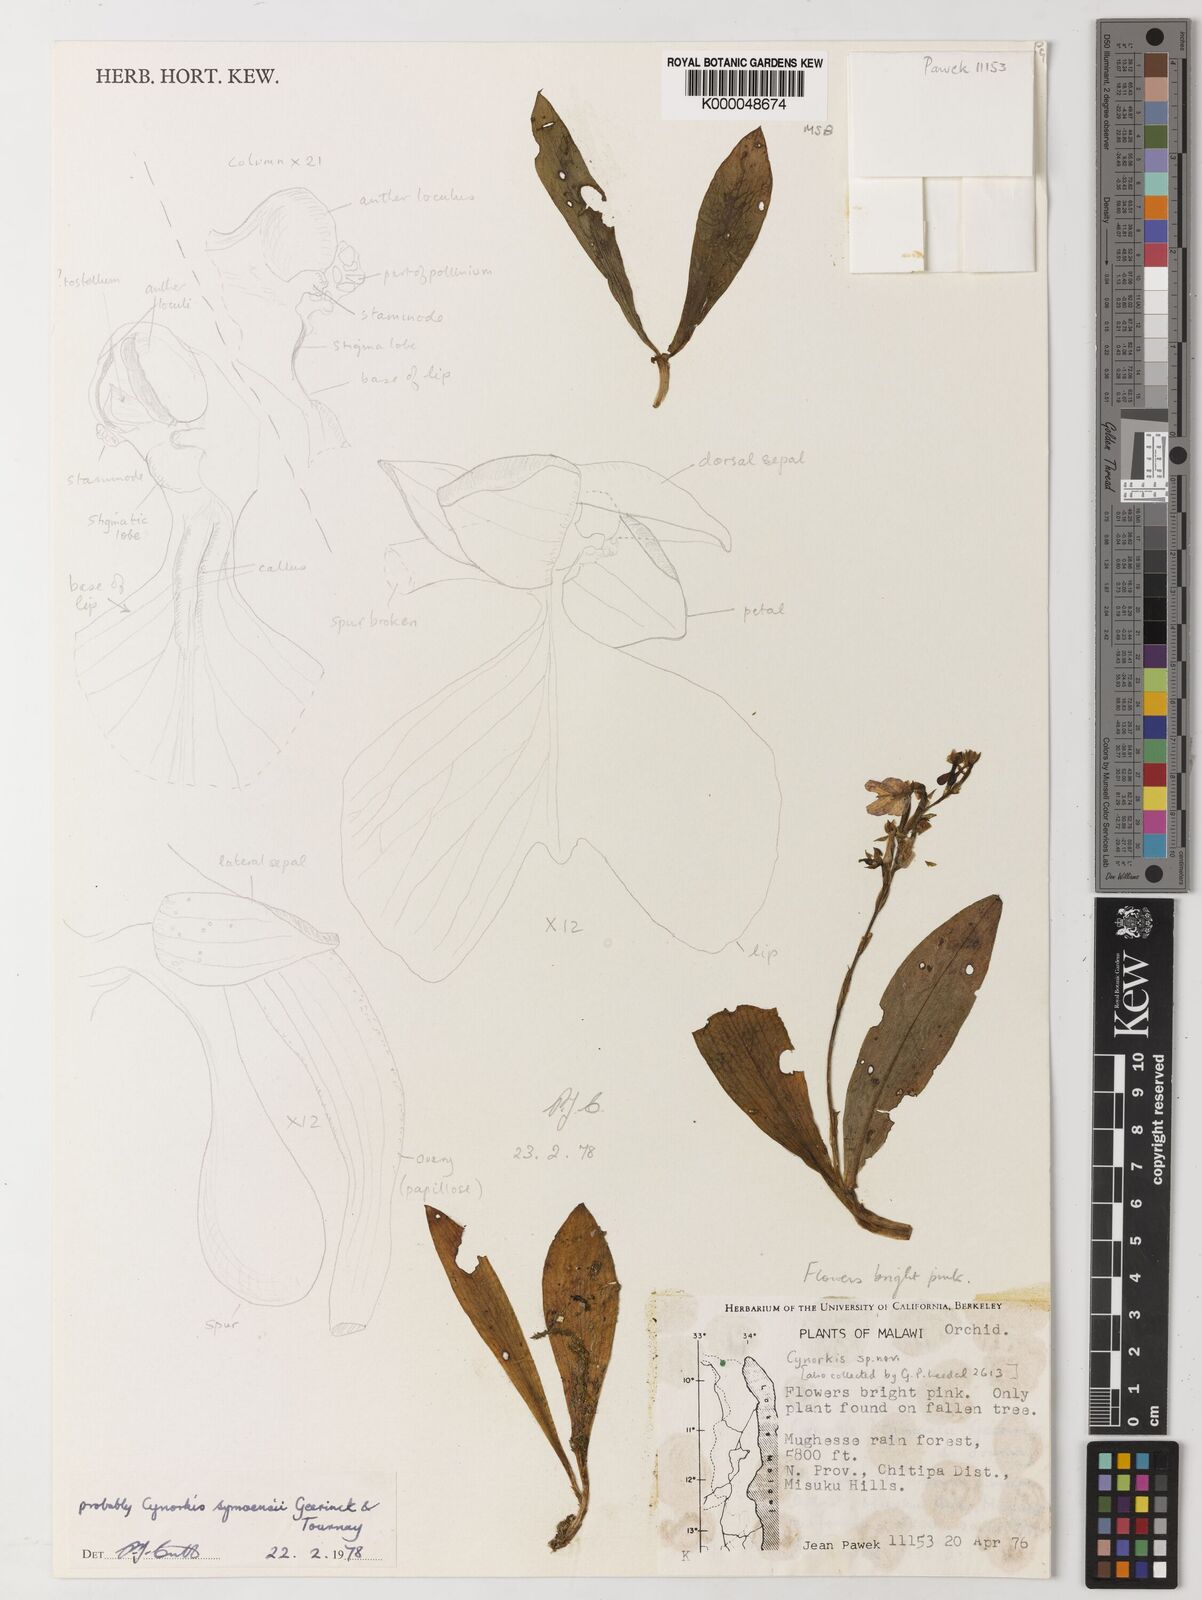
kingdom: Plantae
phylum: Tracheophyta
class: Liliopsida
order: Asparagales
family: Orchidaceae
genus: Cynorkis
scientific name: Cynorkis symoensii
